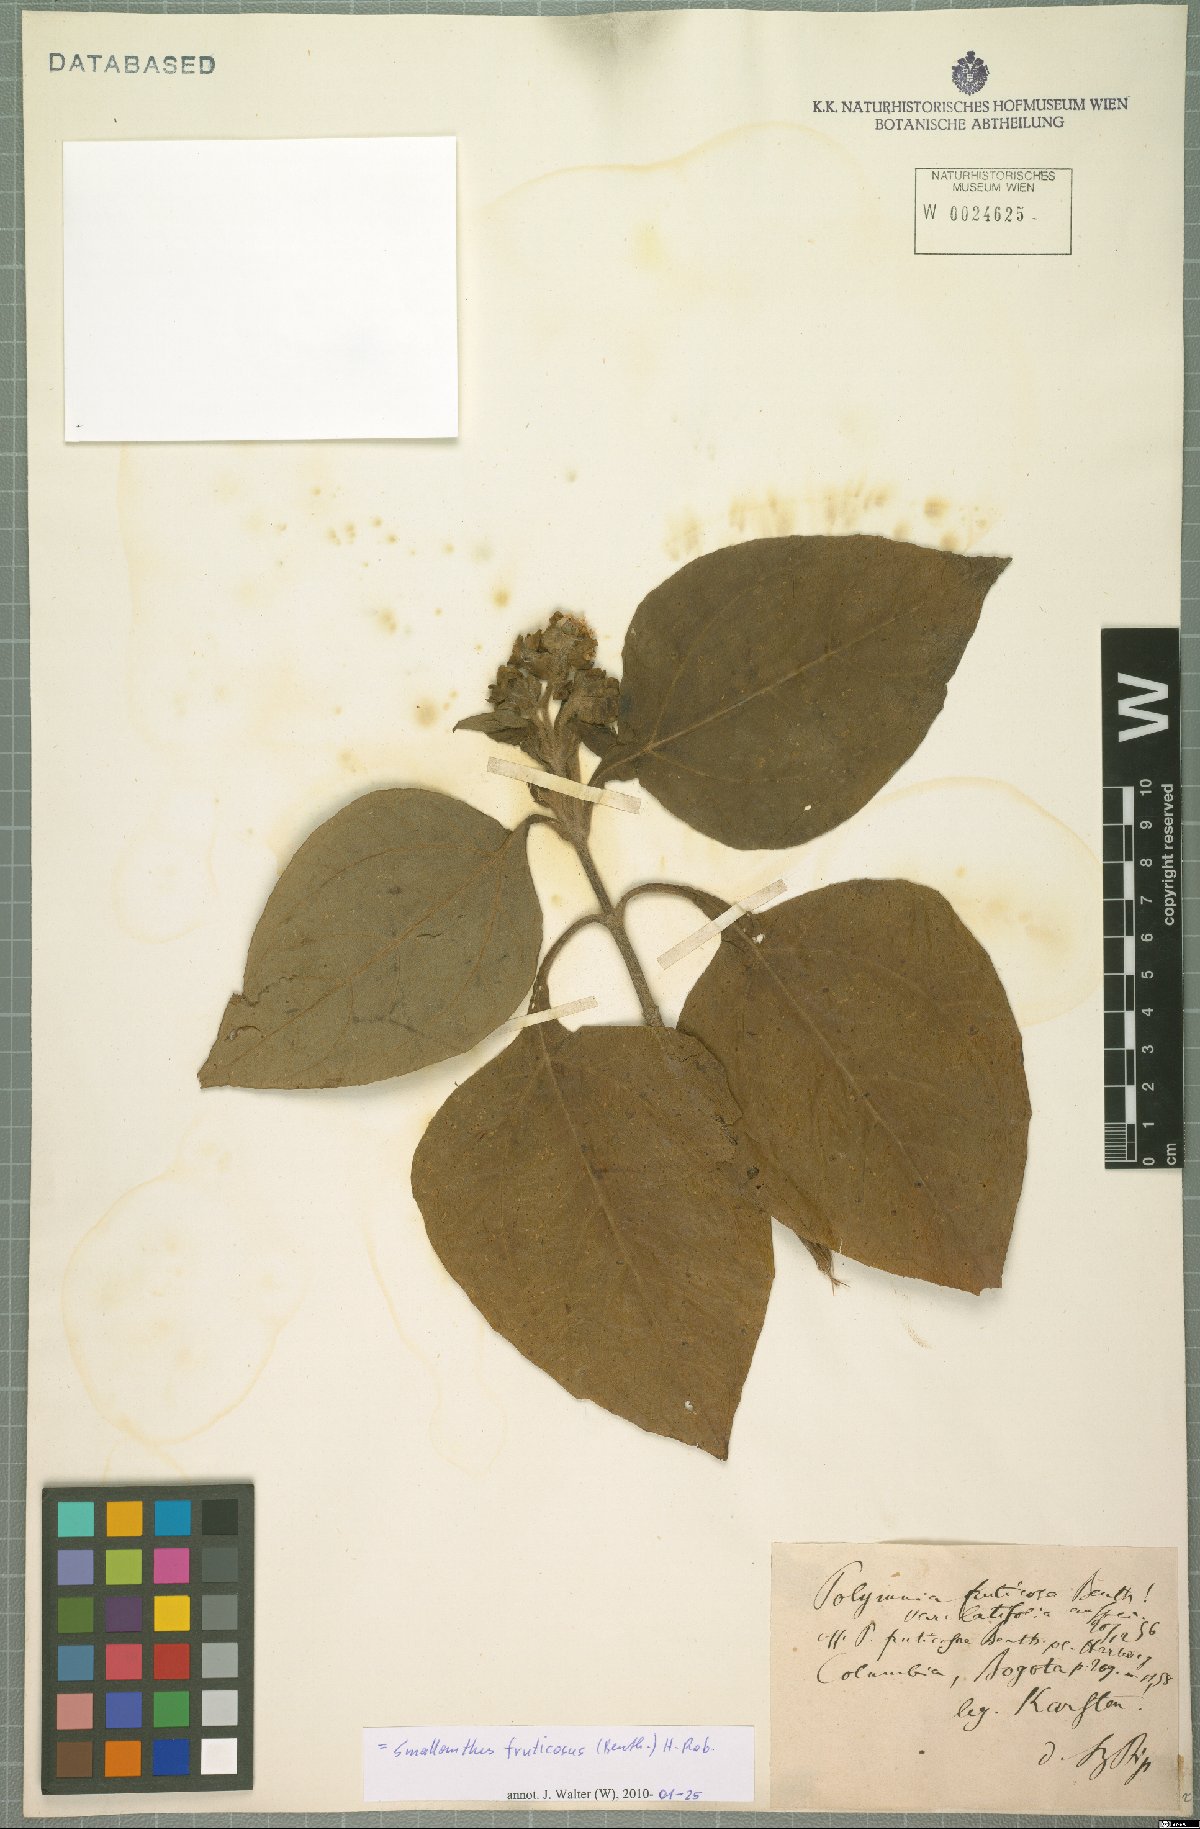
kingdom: Plantae
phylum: Tracheophyta
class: Magnoliopsida
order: Asterales
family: Asteraceae
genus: Smallanthus
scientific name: Smallanthus fruticosus
